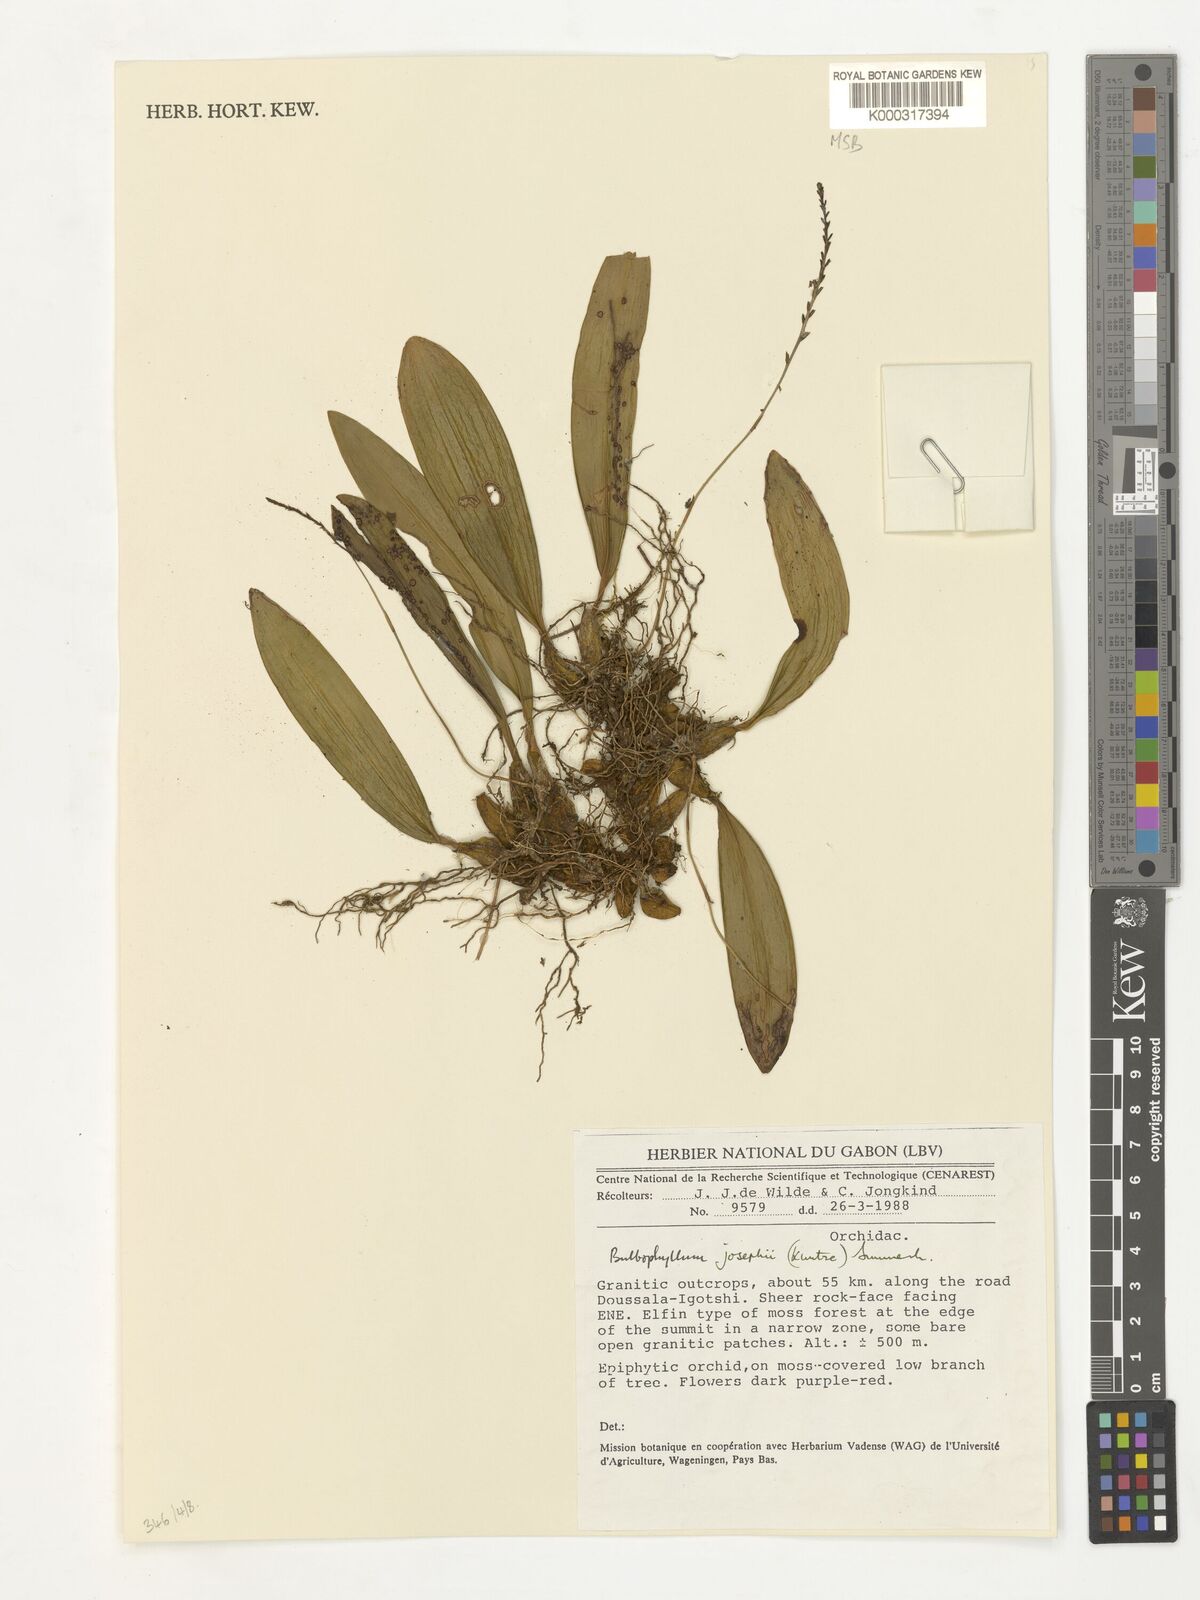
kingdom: Plantae
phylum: Tracheophyta
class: Liliopsida
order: Asparagales
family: Orchidaceae
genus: Bulbophyllum
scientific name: Bulbophyllum josephi
